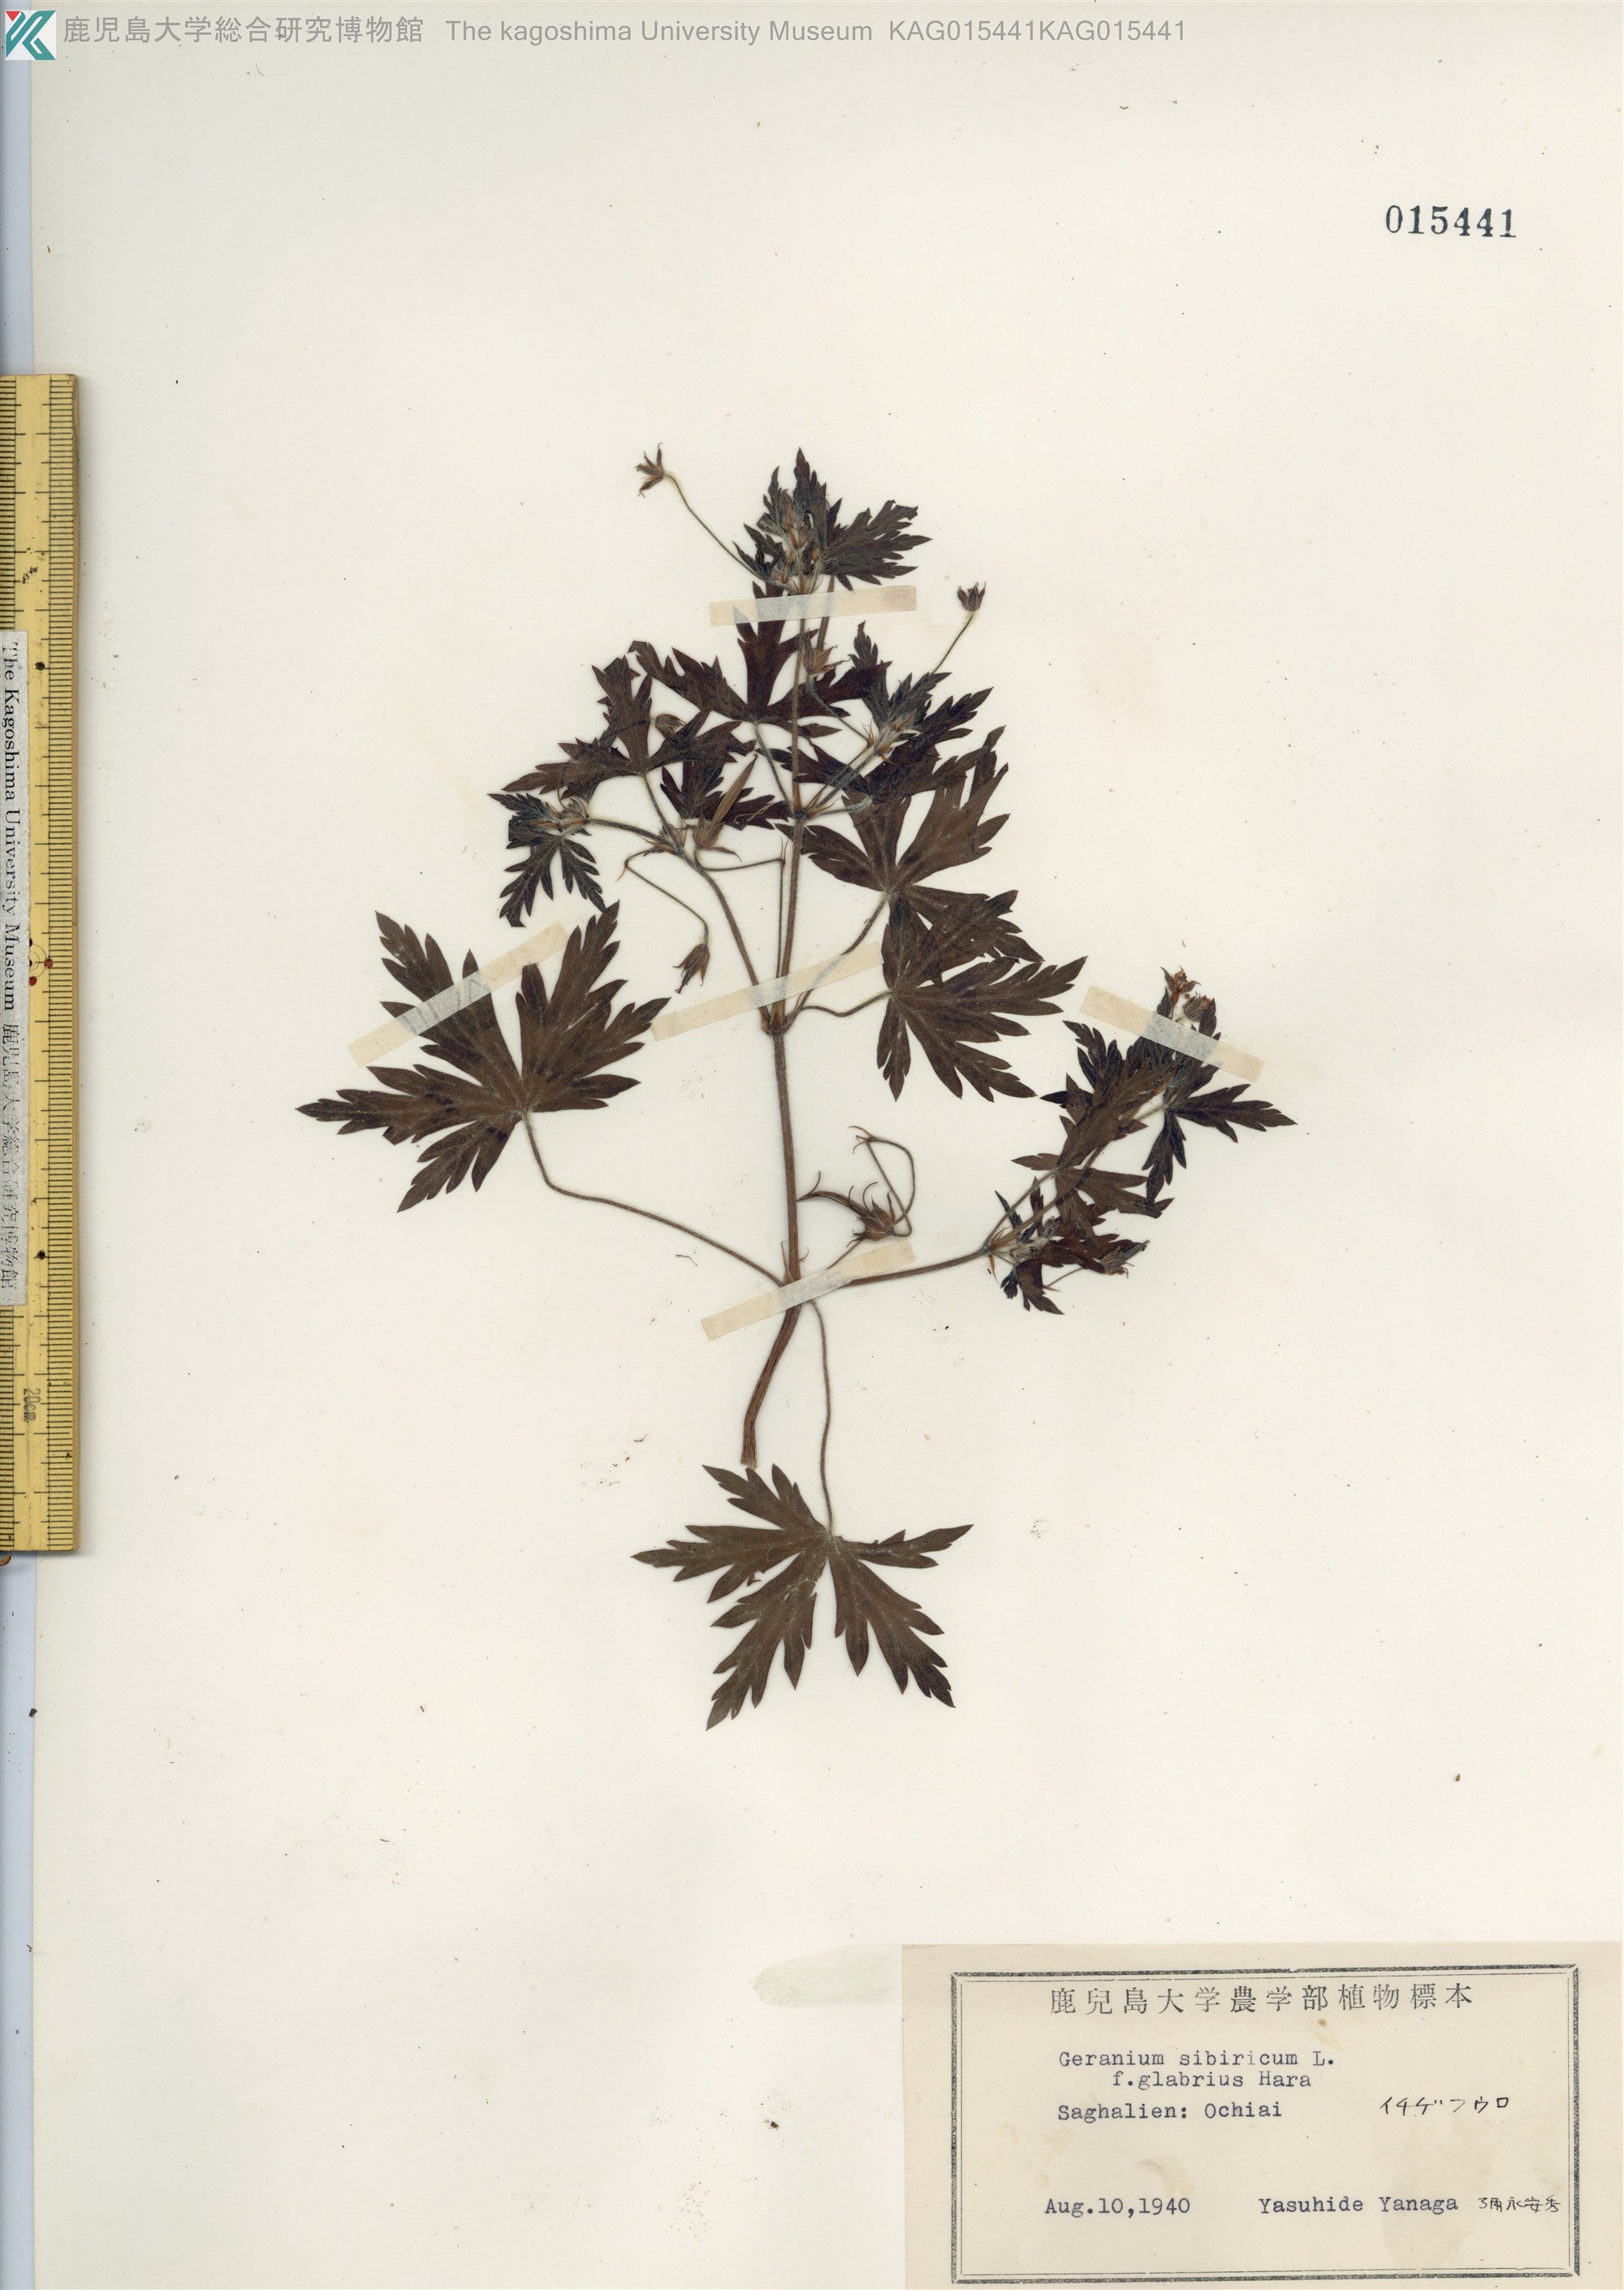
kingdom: Plantae
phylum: Tracheophyta
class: Magnoliopsida
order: Geraniales
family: Geraniaceae
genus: Geranium
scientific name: Geranium sibiricum
